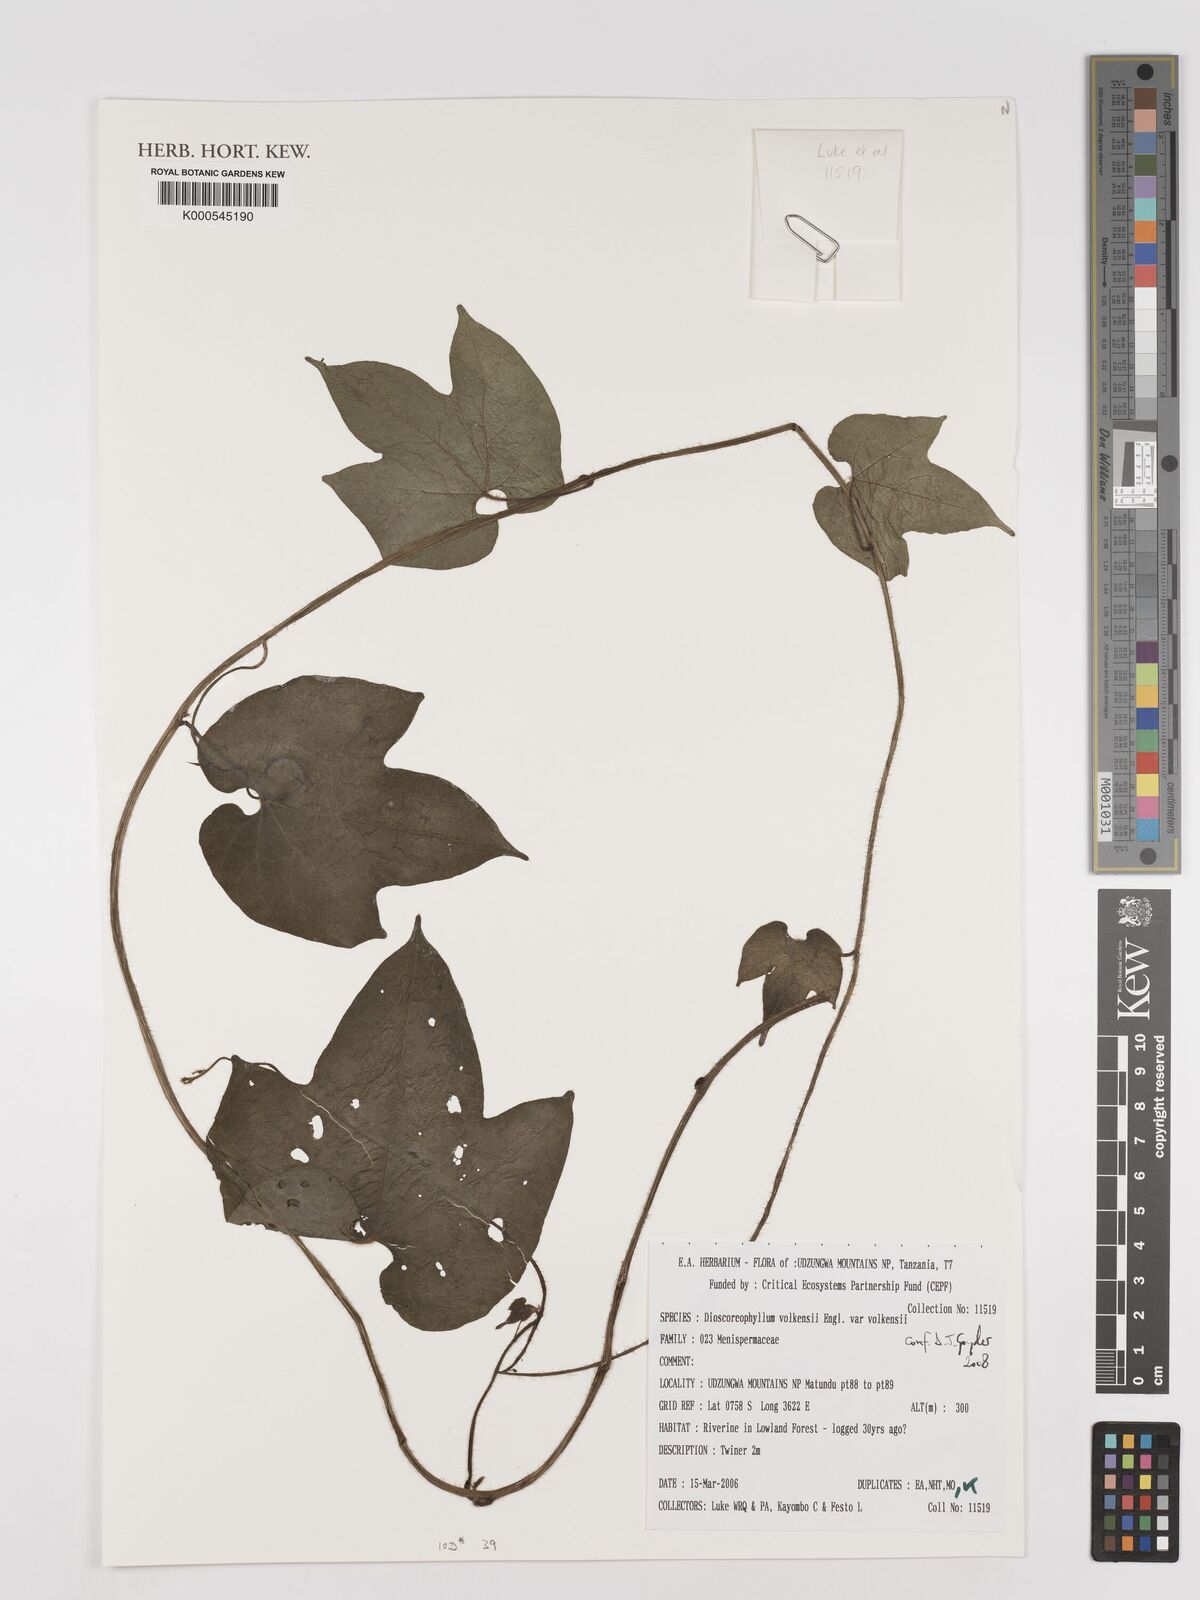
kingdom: Plantae
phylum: Tracheophyta
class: Magnoliopsida
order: Ranunculales
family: Menispermaceae
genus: Dioscoreophyllum
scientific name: Dioscoreophyllum volkensii
